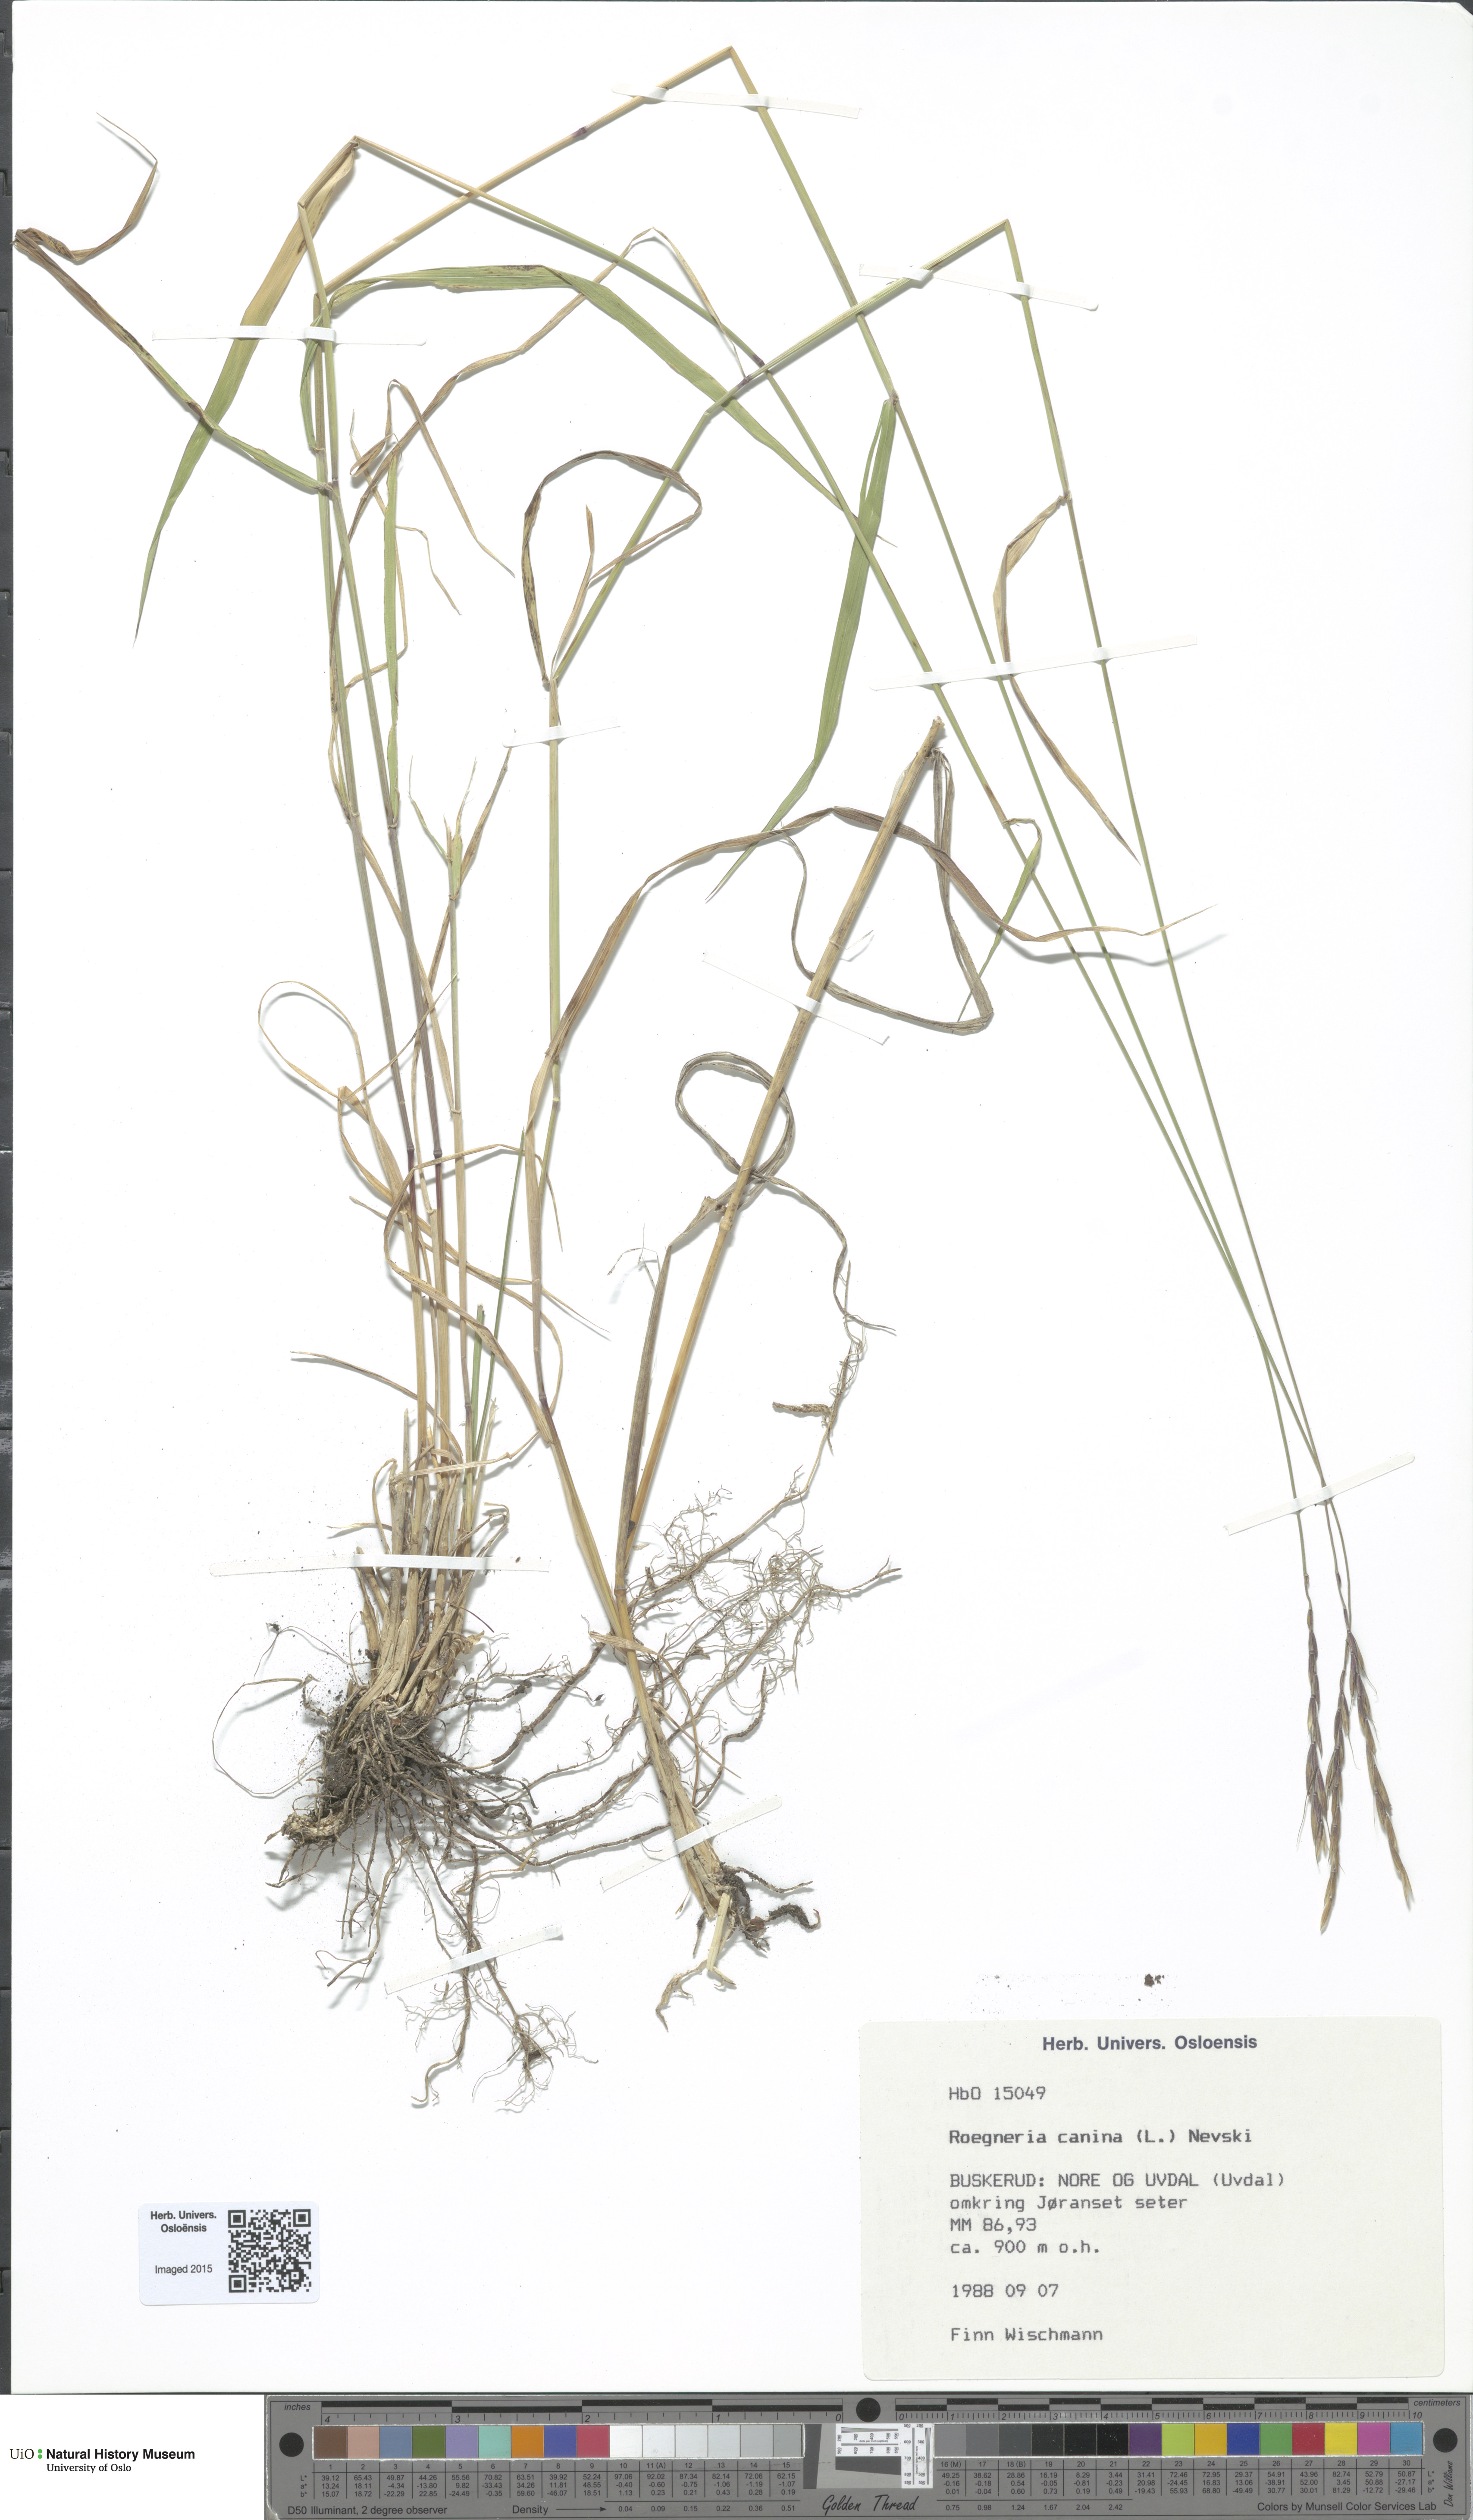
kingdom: Plantae
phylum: Tracheophyta
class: Liliopsida
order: Poales
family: Poaceae
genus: Elymus
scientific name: Elymus caninus
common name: Bearded couch
